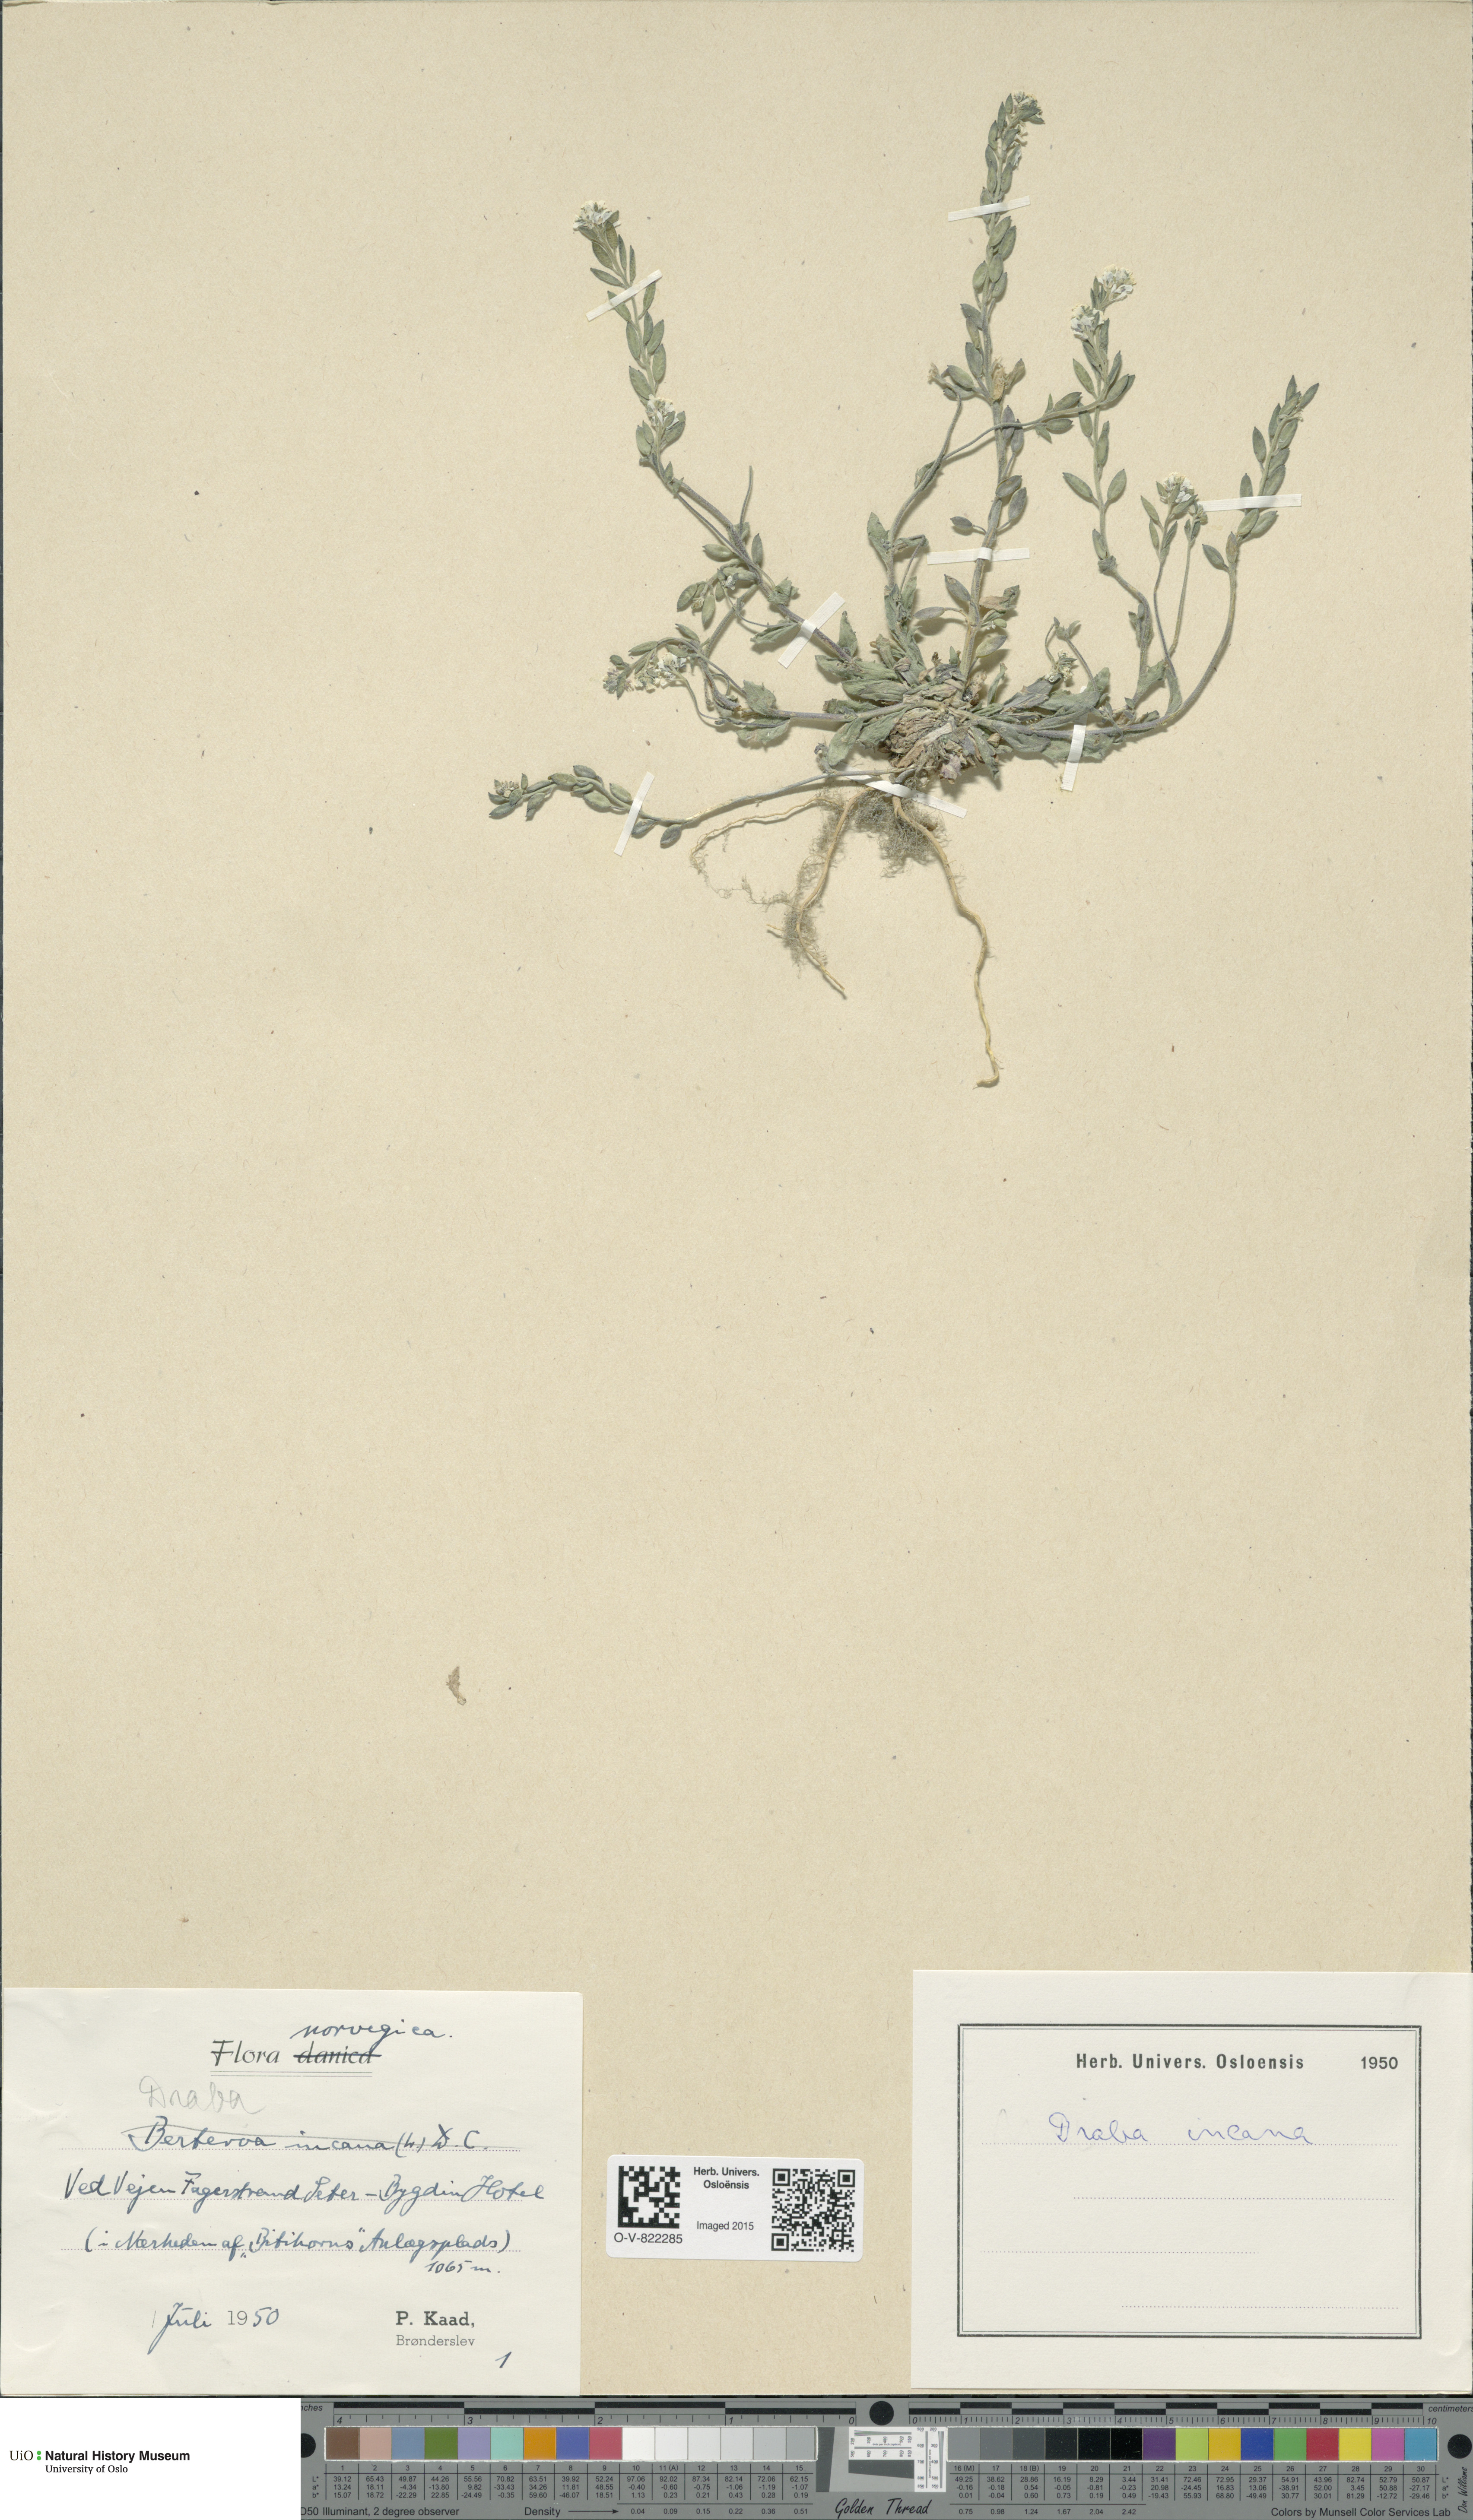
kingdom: Plantae
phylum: Tracheophyta
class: Magnoliopsida
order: Brassicales
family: Brassicaceae
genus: Draba
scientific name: Draba incana
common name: Hoary whitlow-grass
